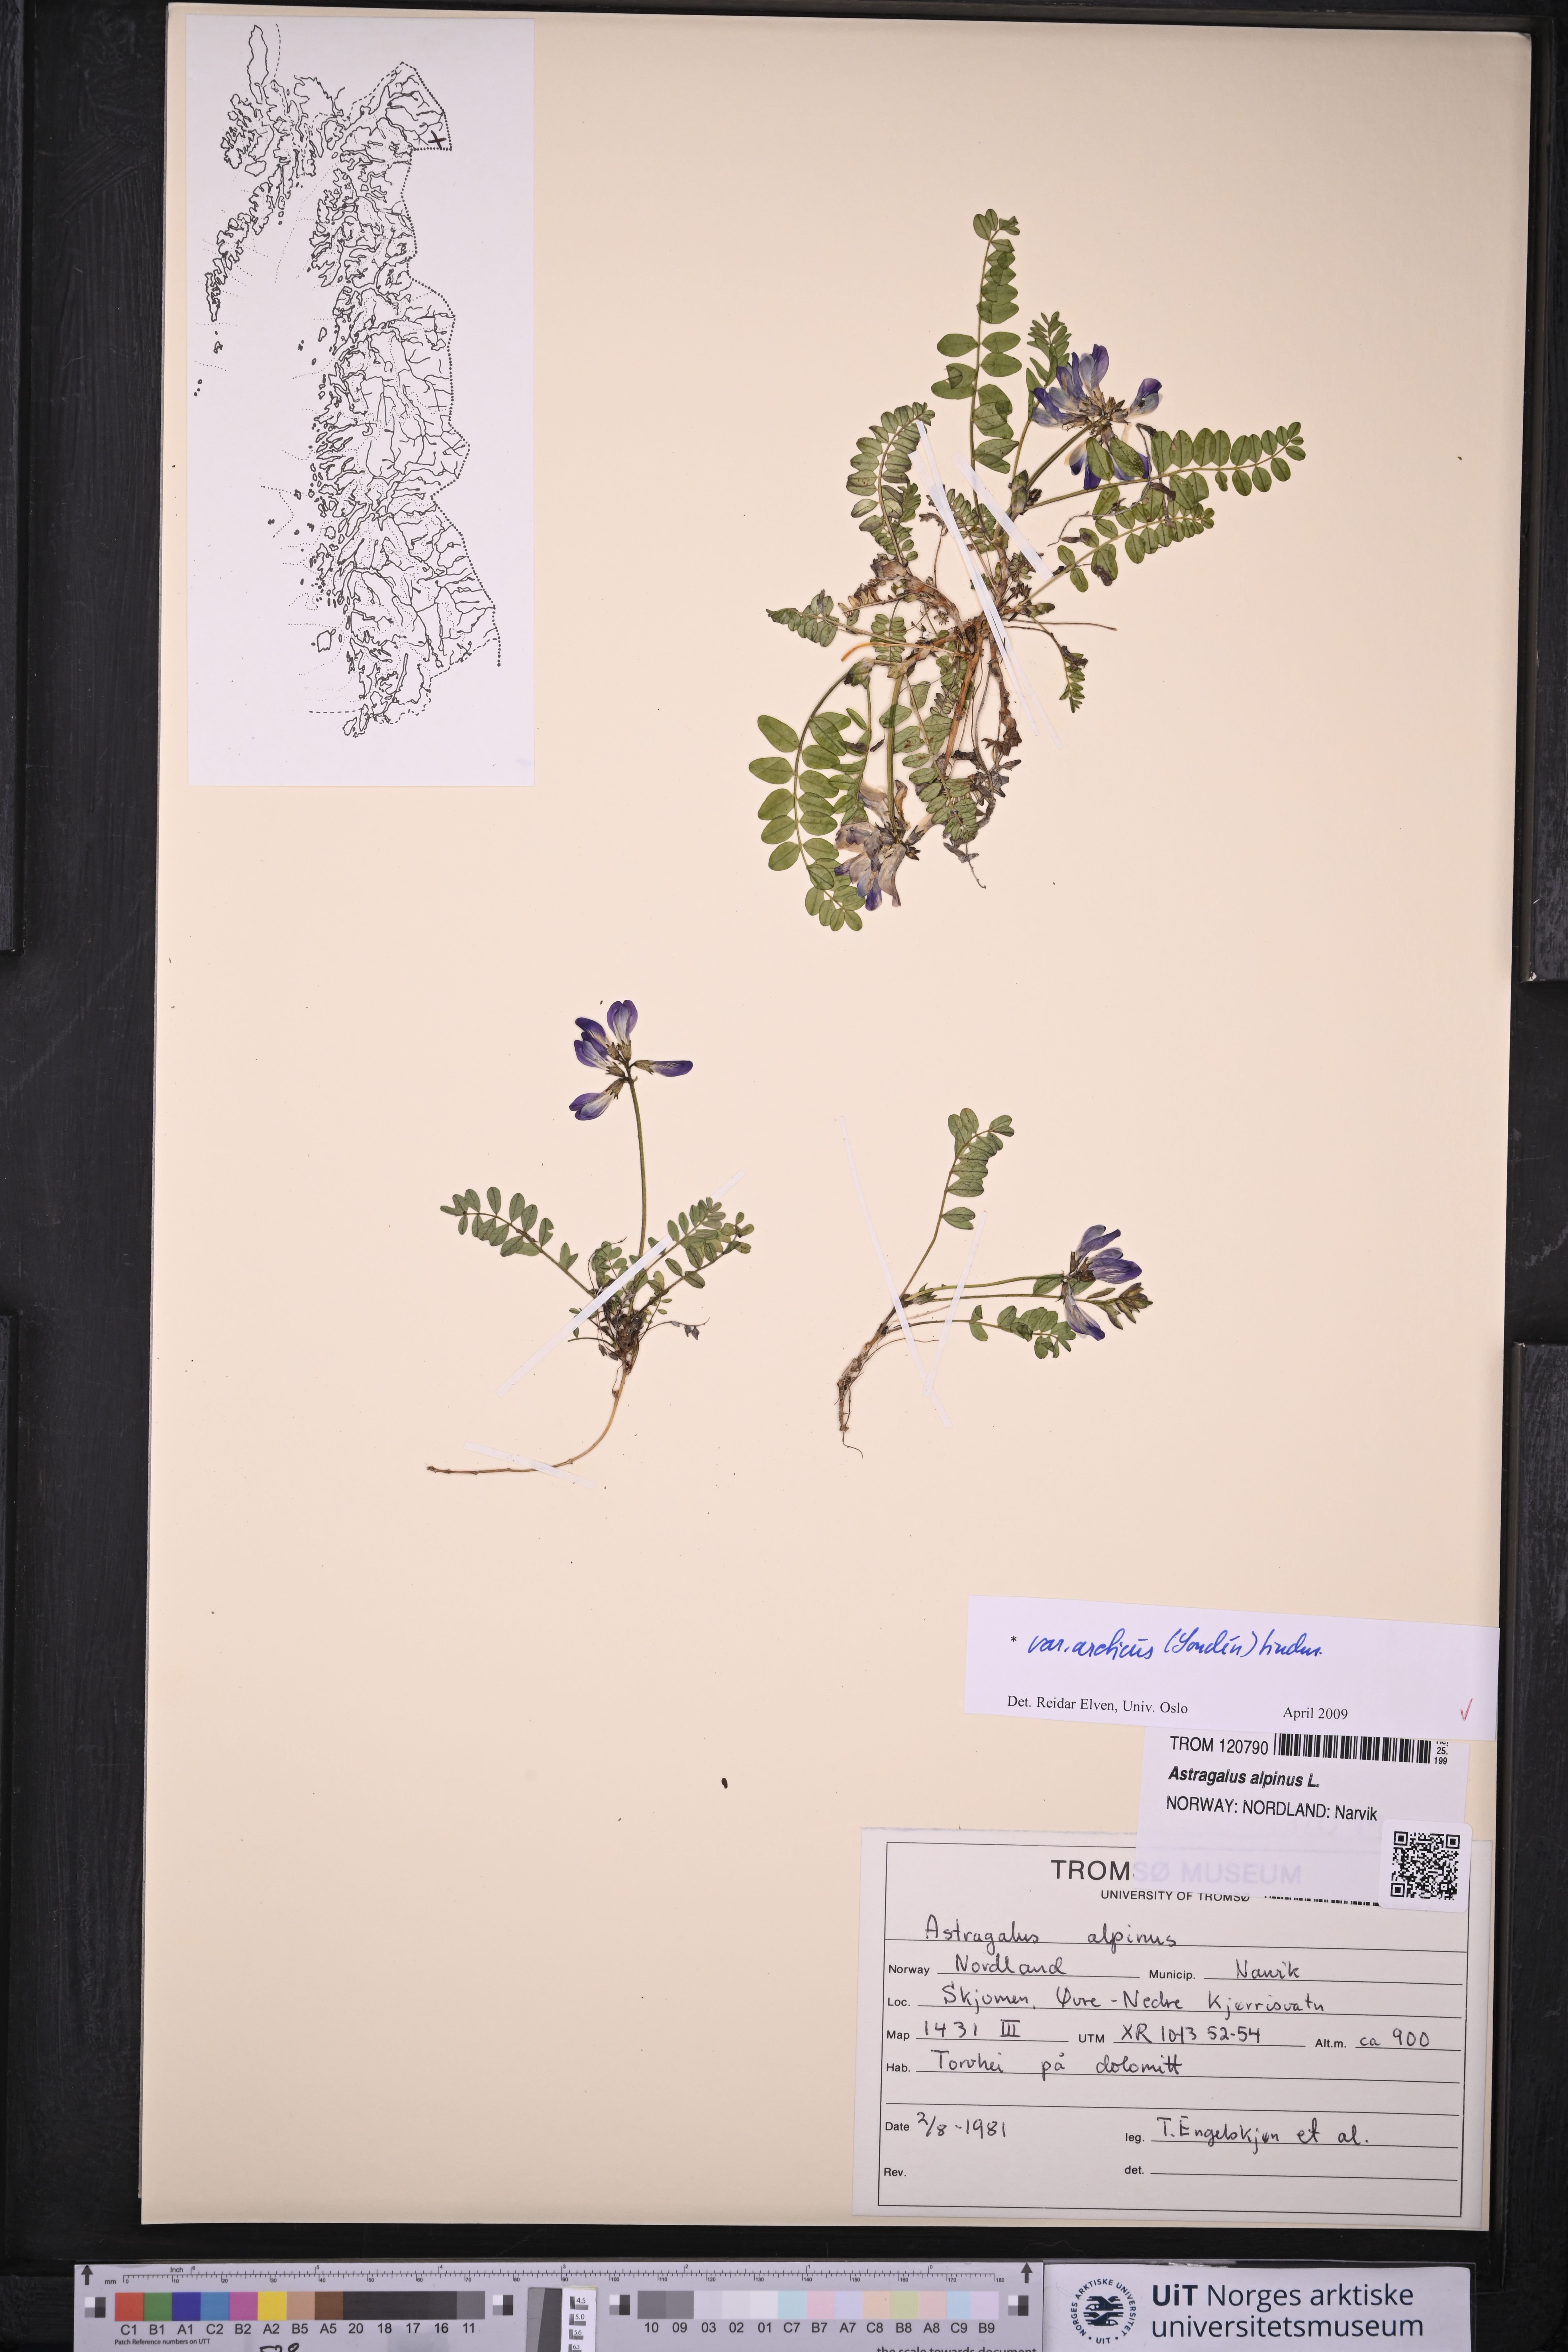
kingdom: Plantae
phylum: Tracheophyta
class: Magnoliopsida
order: Fabales
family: Fabaceae
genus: Astragalus
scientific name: Astragalus norvegicus
